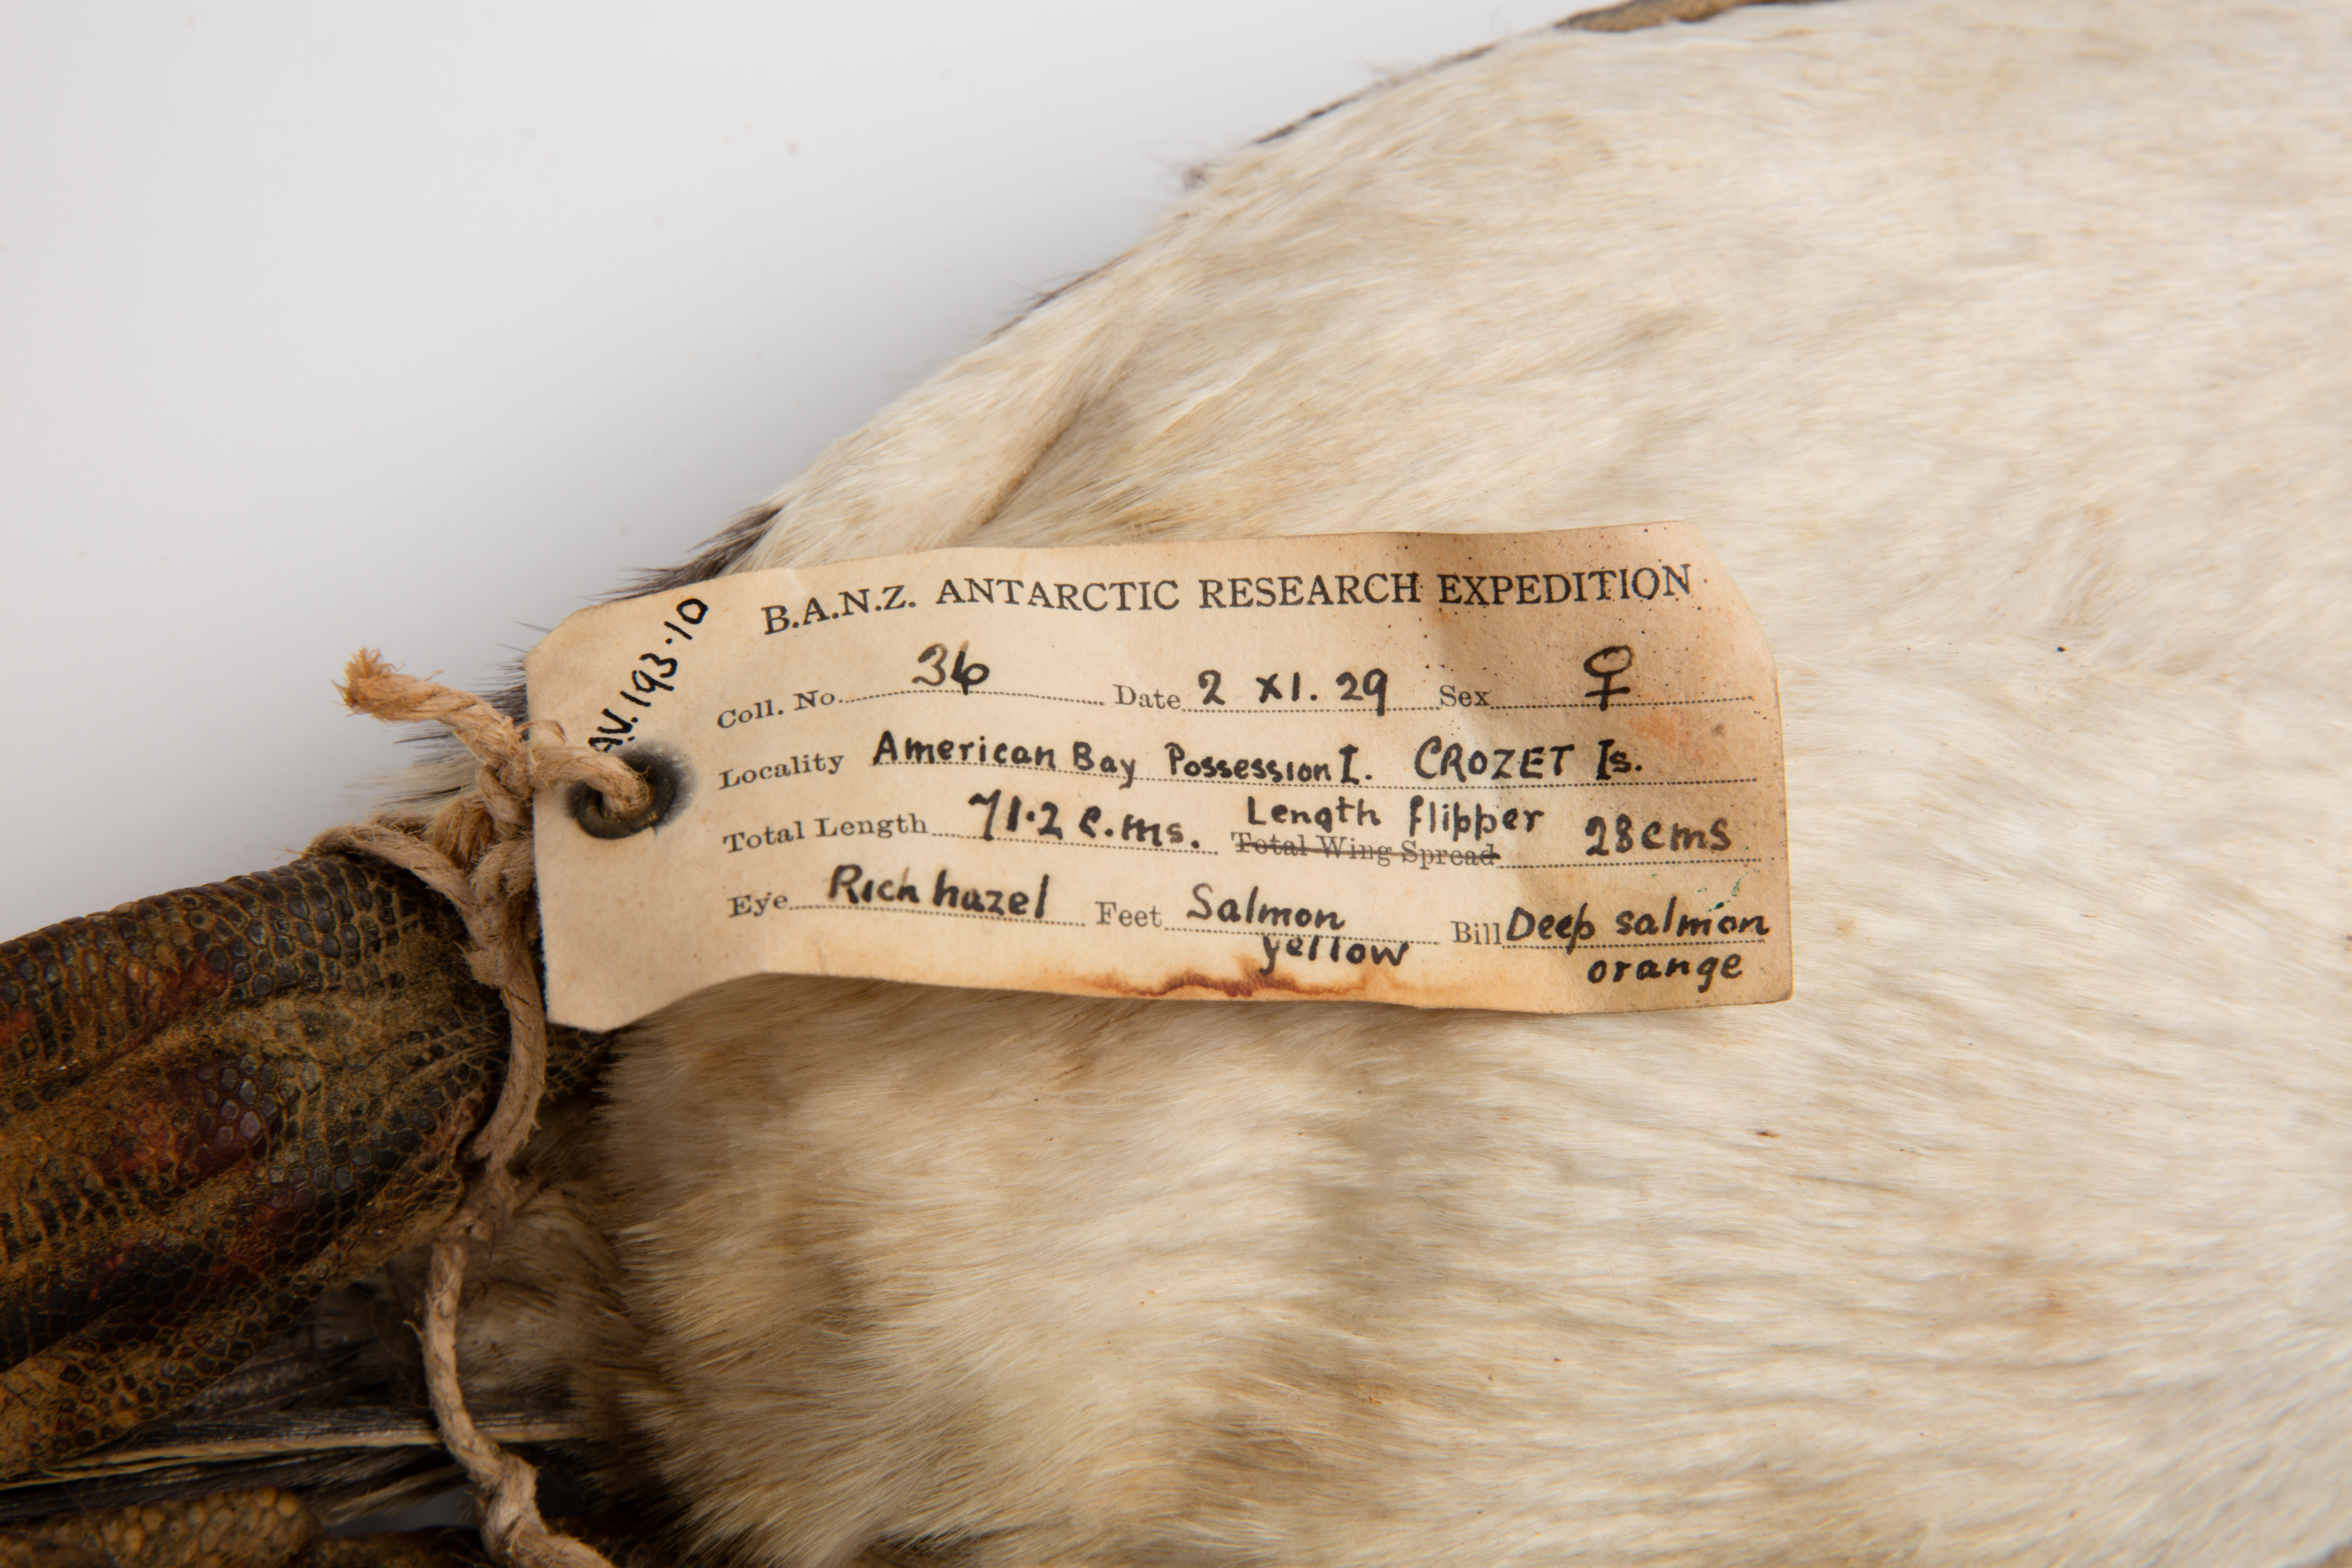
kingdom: Animalia
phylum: Chordata
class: Aves
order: Sphenisciformes
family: Spheniscidae
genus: Pygoscelis
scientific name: Pygoscelis papua
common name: Gentoo penguin
